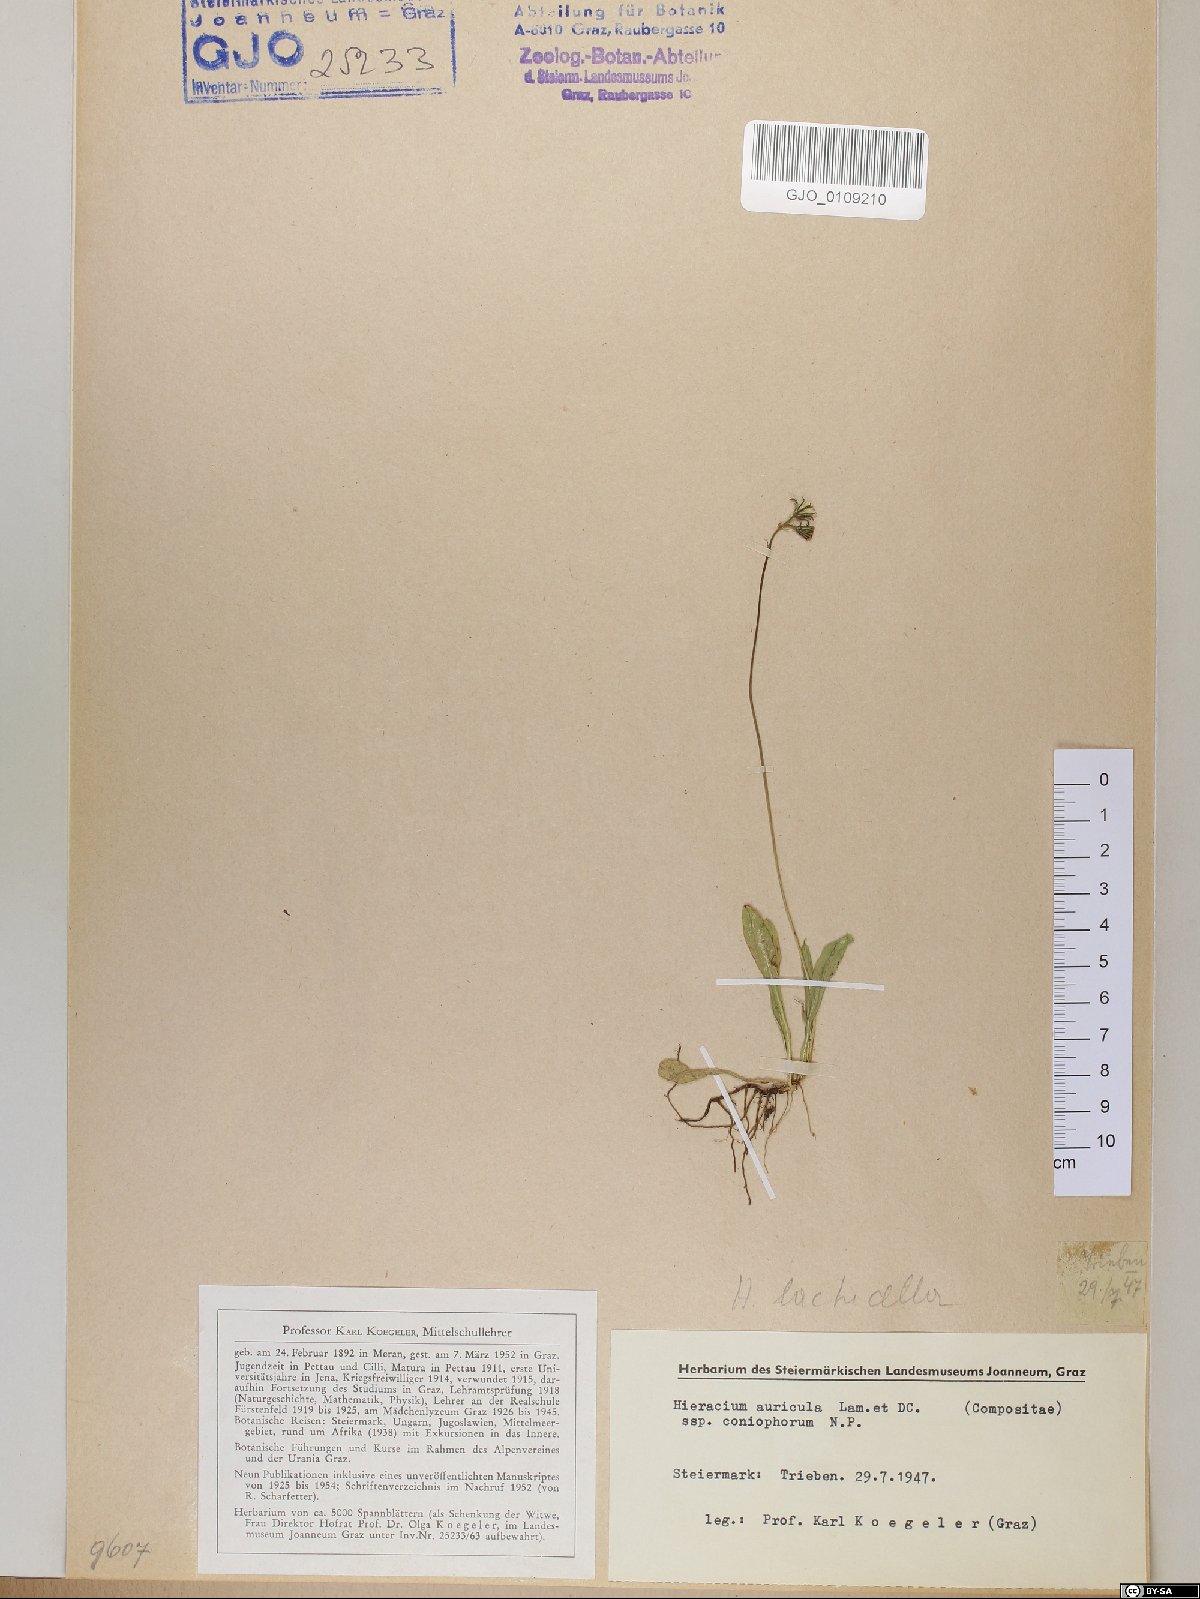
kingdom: Plantae
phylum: Tracheophyta
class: Magnoliopsida
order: Asterales
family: Asteraceae
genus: Hieracium
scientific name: Hieracium auricula
